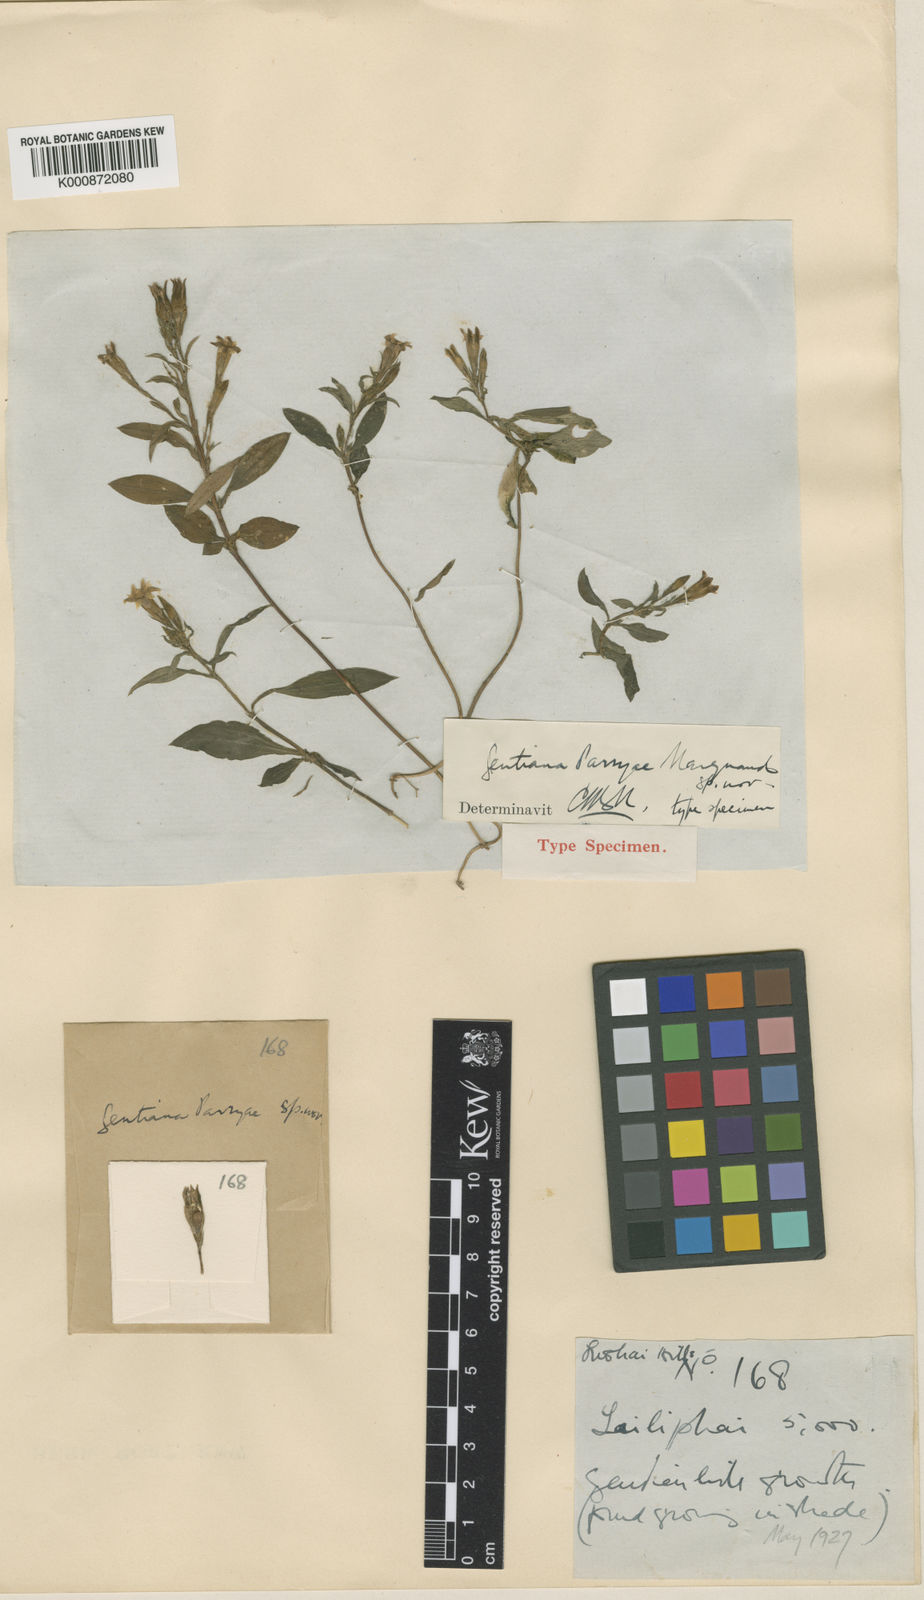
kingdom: Plantae
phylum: Tracheophyta
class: Magnoliopsida
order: Gentianales
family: Gentianaceae
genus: Gentiana
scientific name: Gentiana parryae
